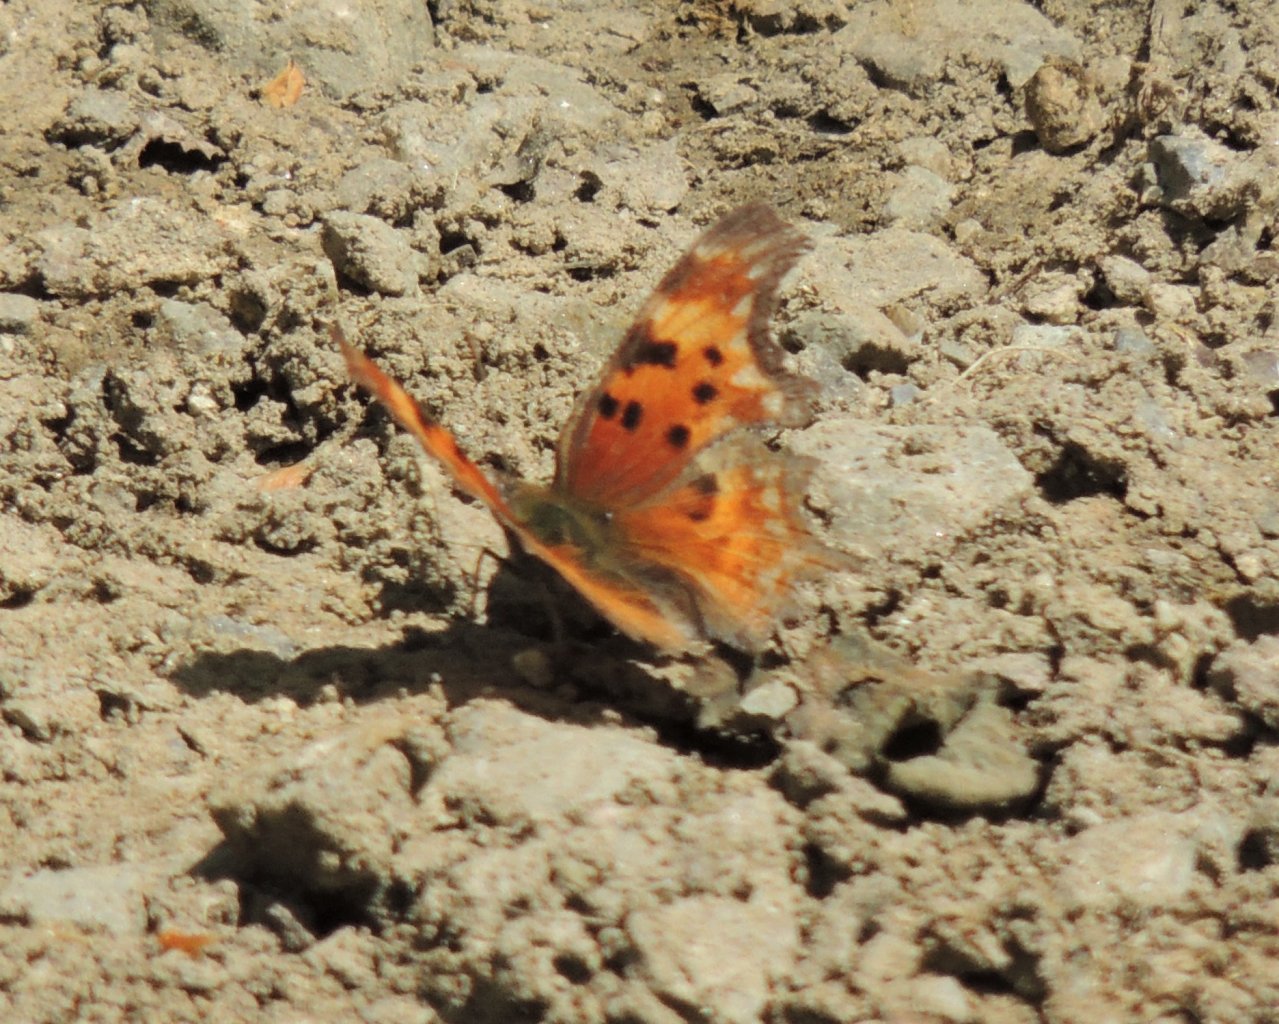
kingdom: Animalia
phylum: Arthropoda
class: Insecta
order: Lepidoptera
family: Nymphalidae
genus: Polygonia
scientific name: Polygonia gracilis
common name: Hoary Comma
